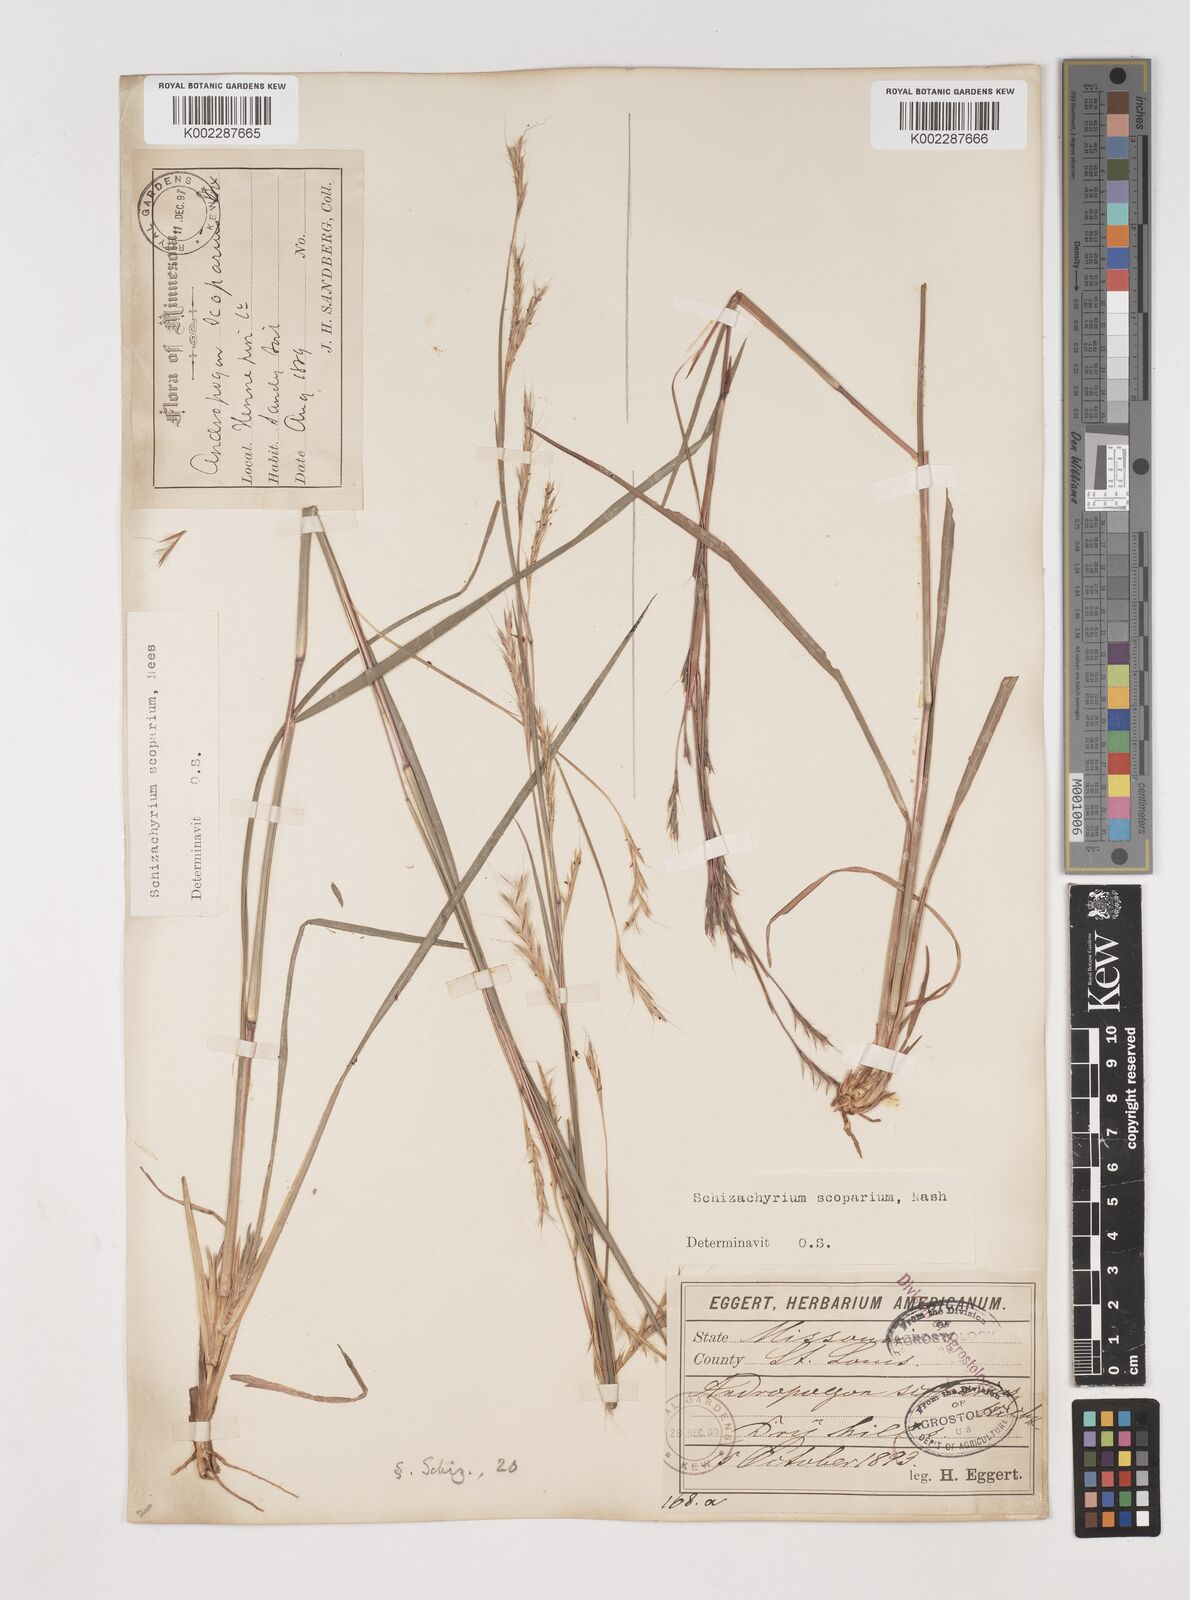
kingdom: Plantae
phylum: Tracheophyta
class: Liliopsida
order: Poales
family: Poaceae
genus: Schizachyrium
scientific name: Schizachyrium scoparium
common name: Little bluestem
